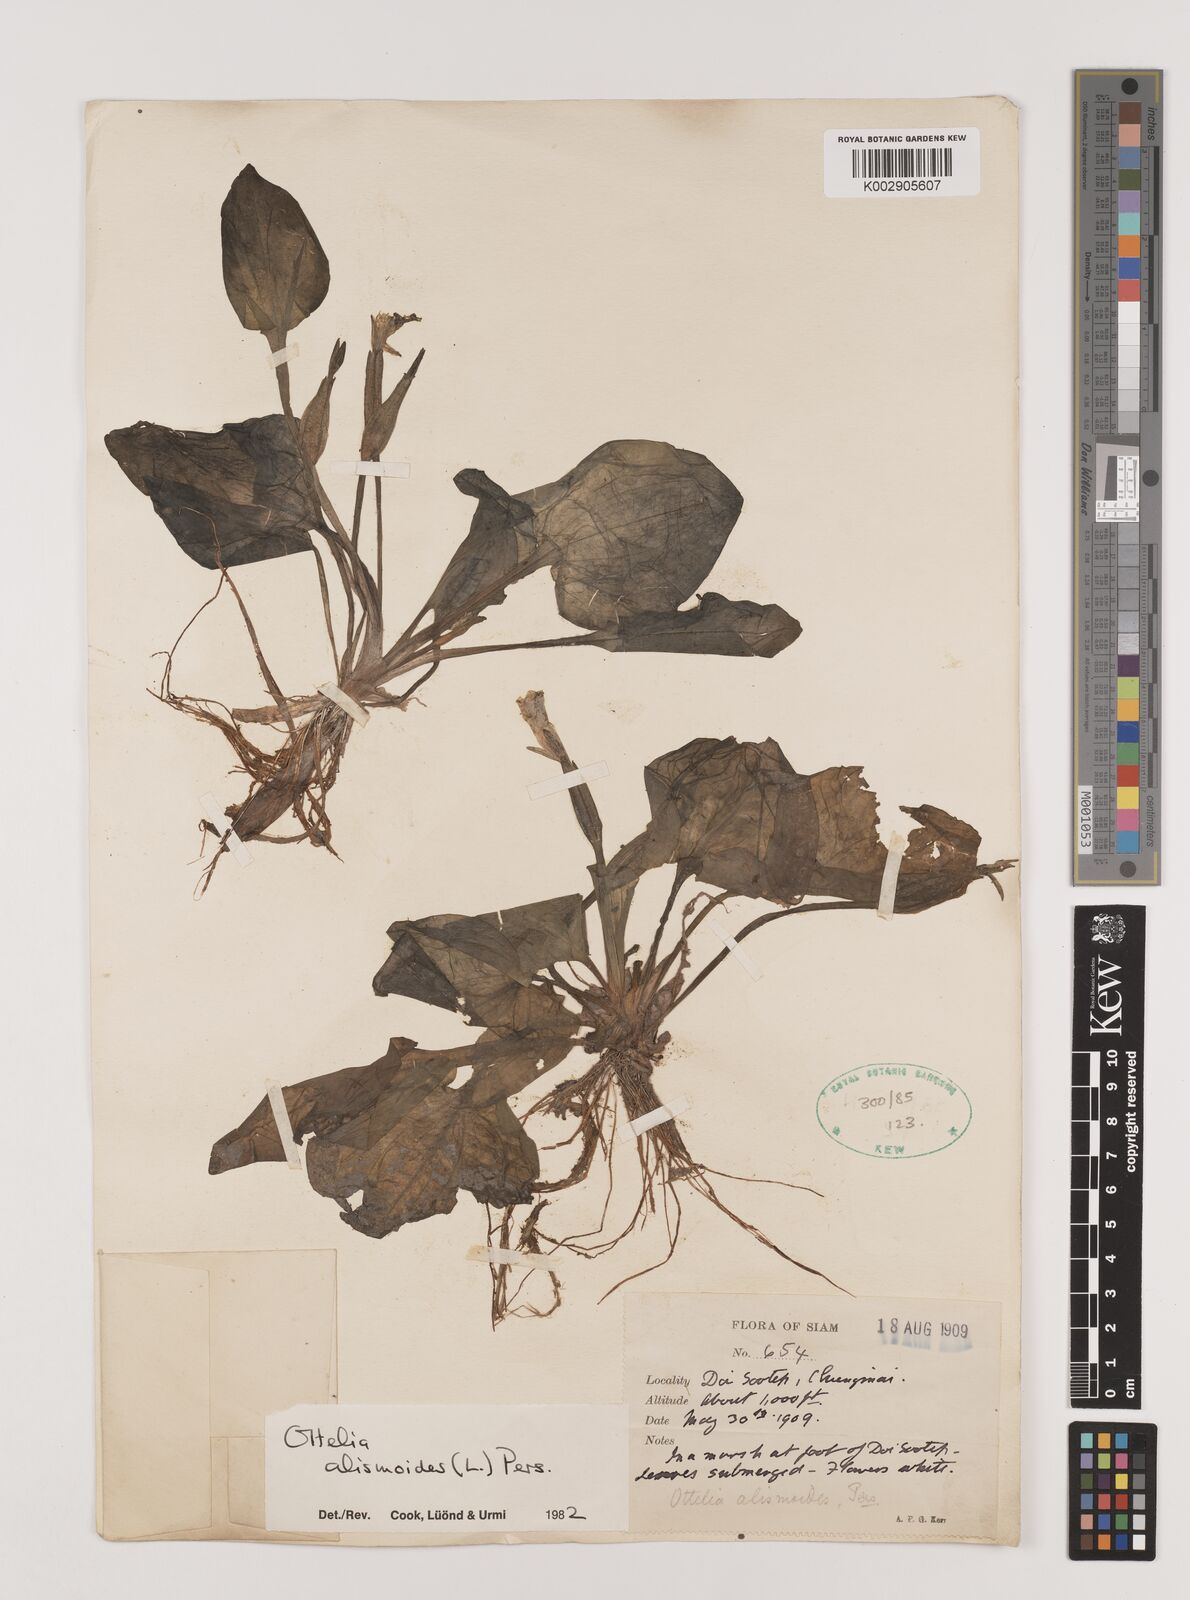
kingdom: Plantae
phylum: Tracheophyta
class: Liliopsida
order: Alismatales
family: Hydrocharitaceae
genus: Ottelia
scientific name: Ottelia alismoides
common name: Duck-lettuce
